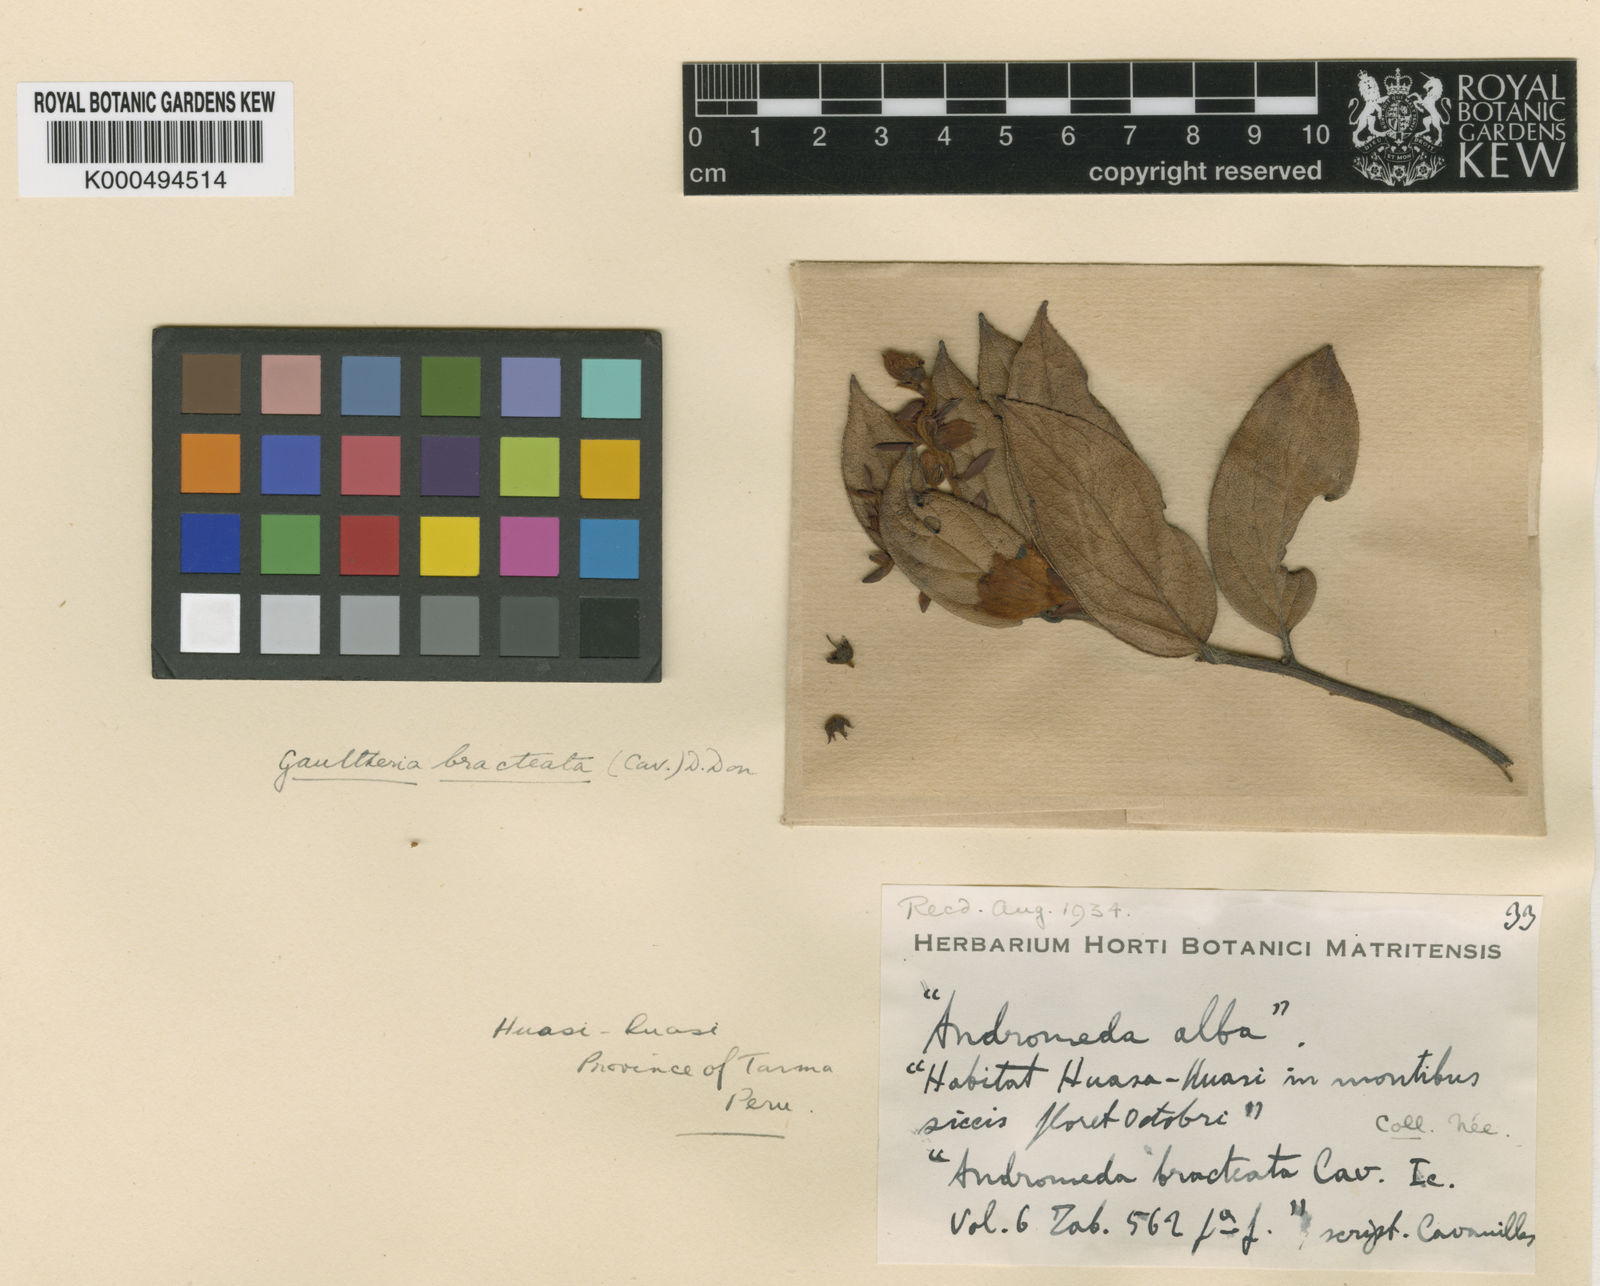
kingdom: Plantae
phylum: Tracheophyta
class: Magnoliopsida
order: Ericales
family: Ericaceae
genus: Gaultheria
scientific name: Gaultheria bracteata
